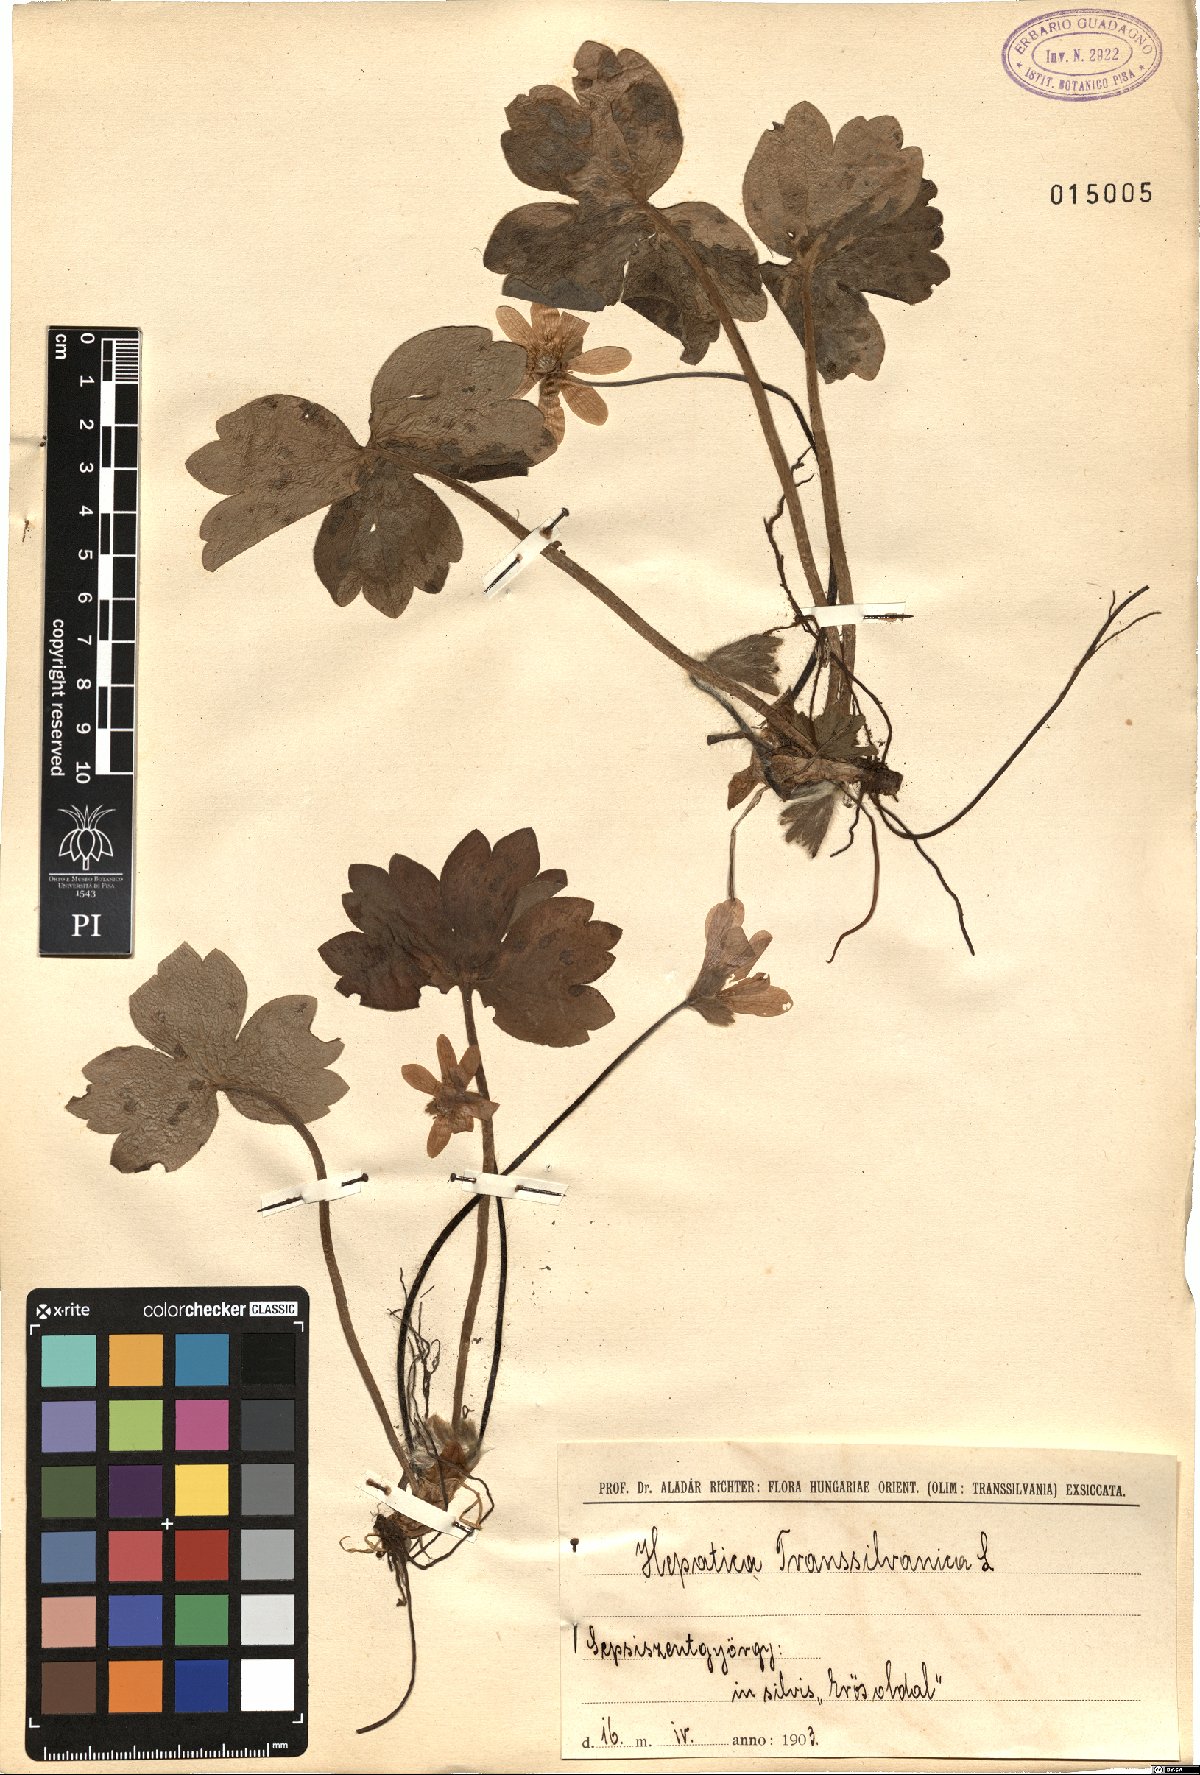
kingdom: Plantae
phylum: Tracheophyta
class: Magnoliopsida
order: Ranunculales
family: Ranunculaceae
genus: Hepatica
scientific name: Hepatica transsilvanica
